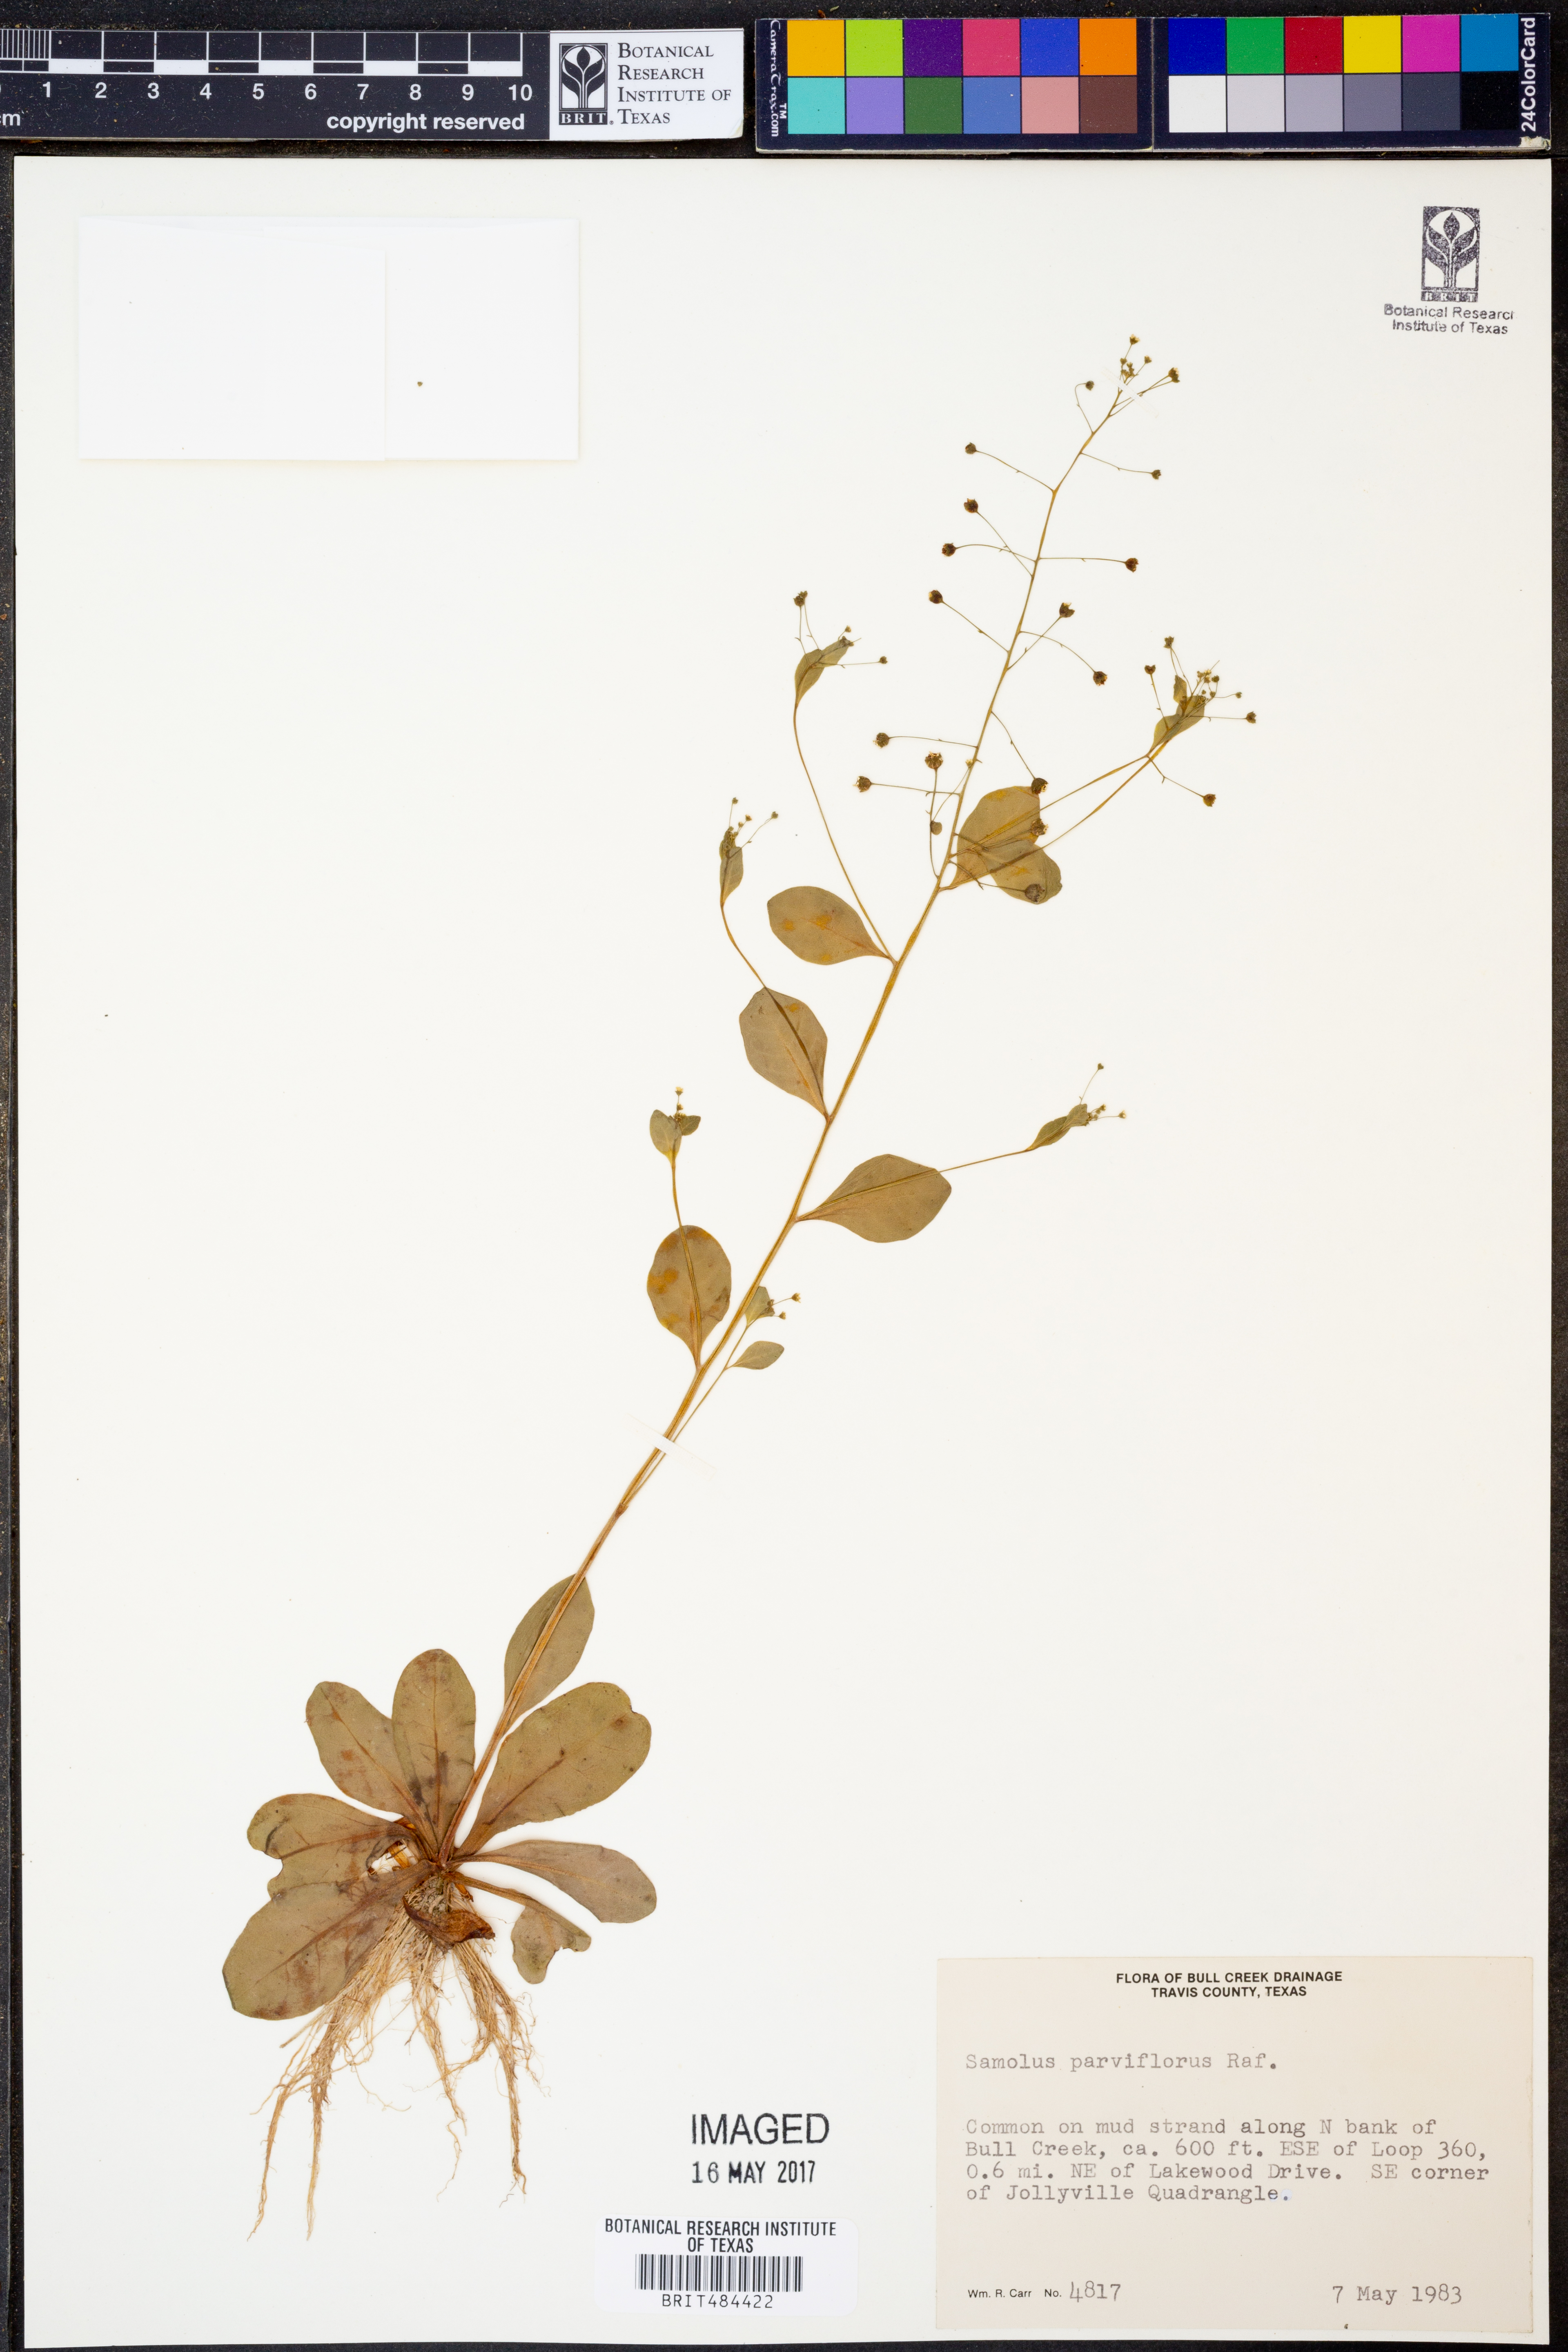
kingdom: Plantae
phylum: Tracheophyta
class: Magnoliopsida
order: Ericales
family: Primulaceae
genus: Samolus
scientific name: Samolus parviflorus
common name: False water pimpernel
